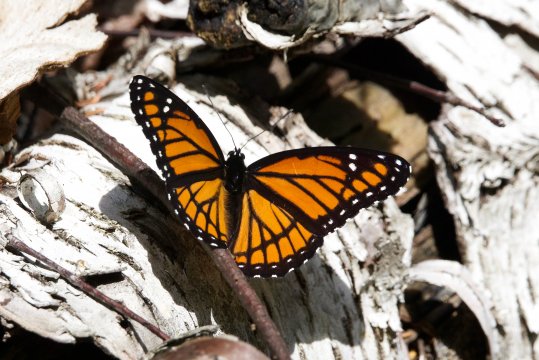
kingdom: Animalia
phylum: Arthropoda
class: Insecta
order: Lepidoptera
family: Nymphalidae
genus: Limenitis
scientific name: Limenitis archippus
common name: Viceroy
